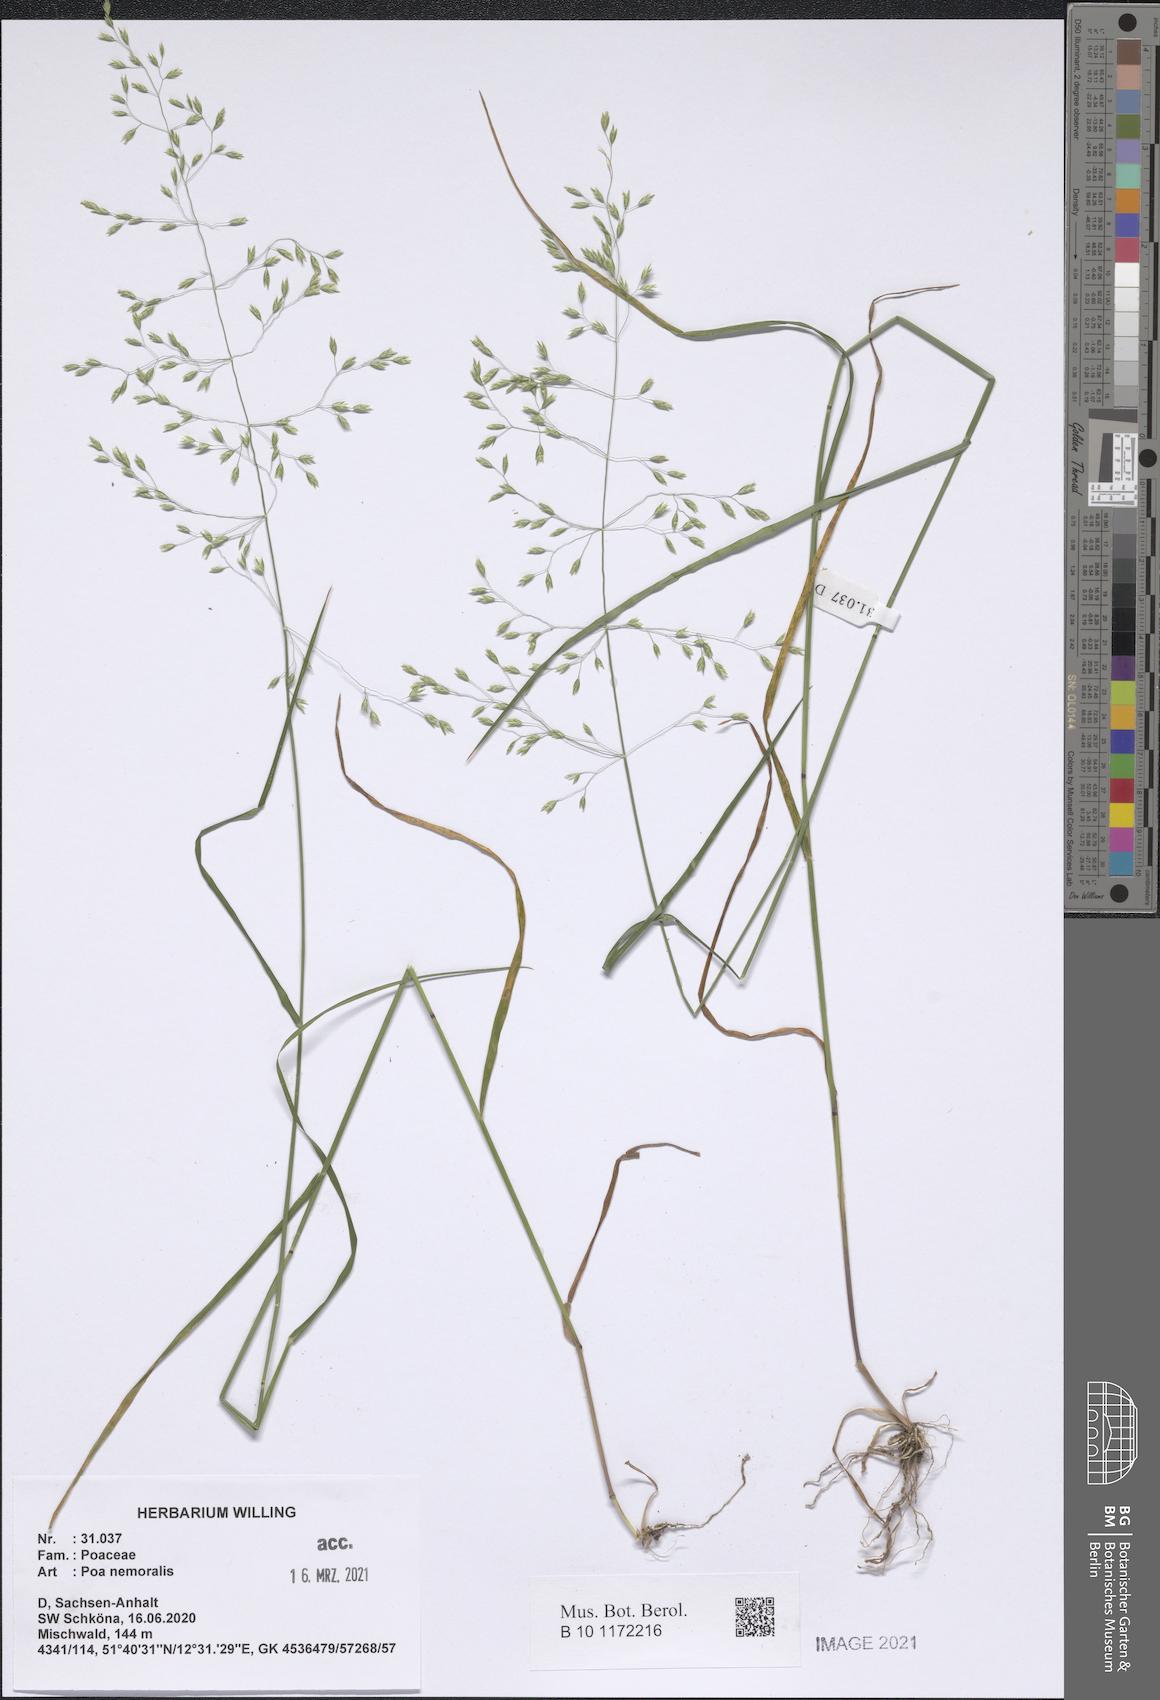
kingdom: Plantae
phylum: Tracheophyta
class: Liliopsida
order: Poales
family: Poaceae
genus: Poa
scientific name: Poa nemoralis
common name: Wood bluegrass
